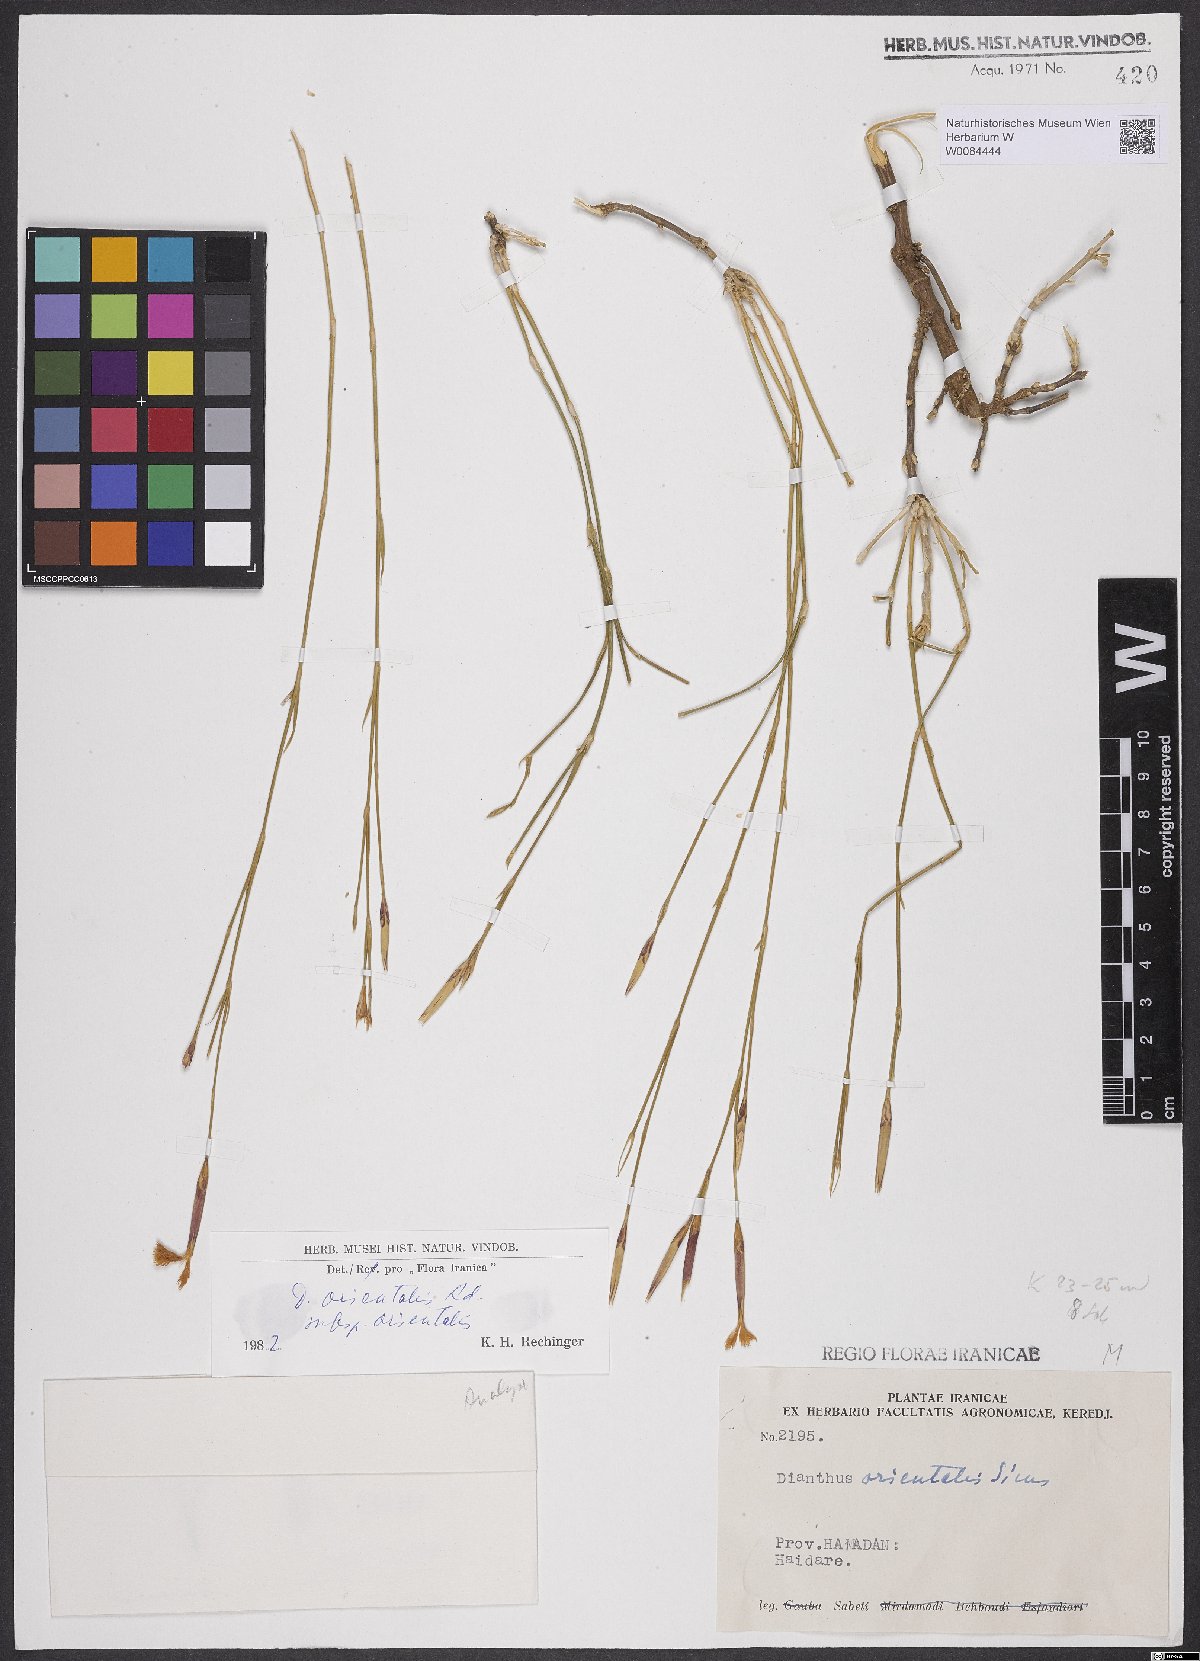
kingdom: Plantae
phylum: Tracheophyta
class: Magnoliopsida
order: Caryophyllales
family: Caryophyllaceae
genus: Dianthus
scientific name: Dianthus orientalis
